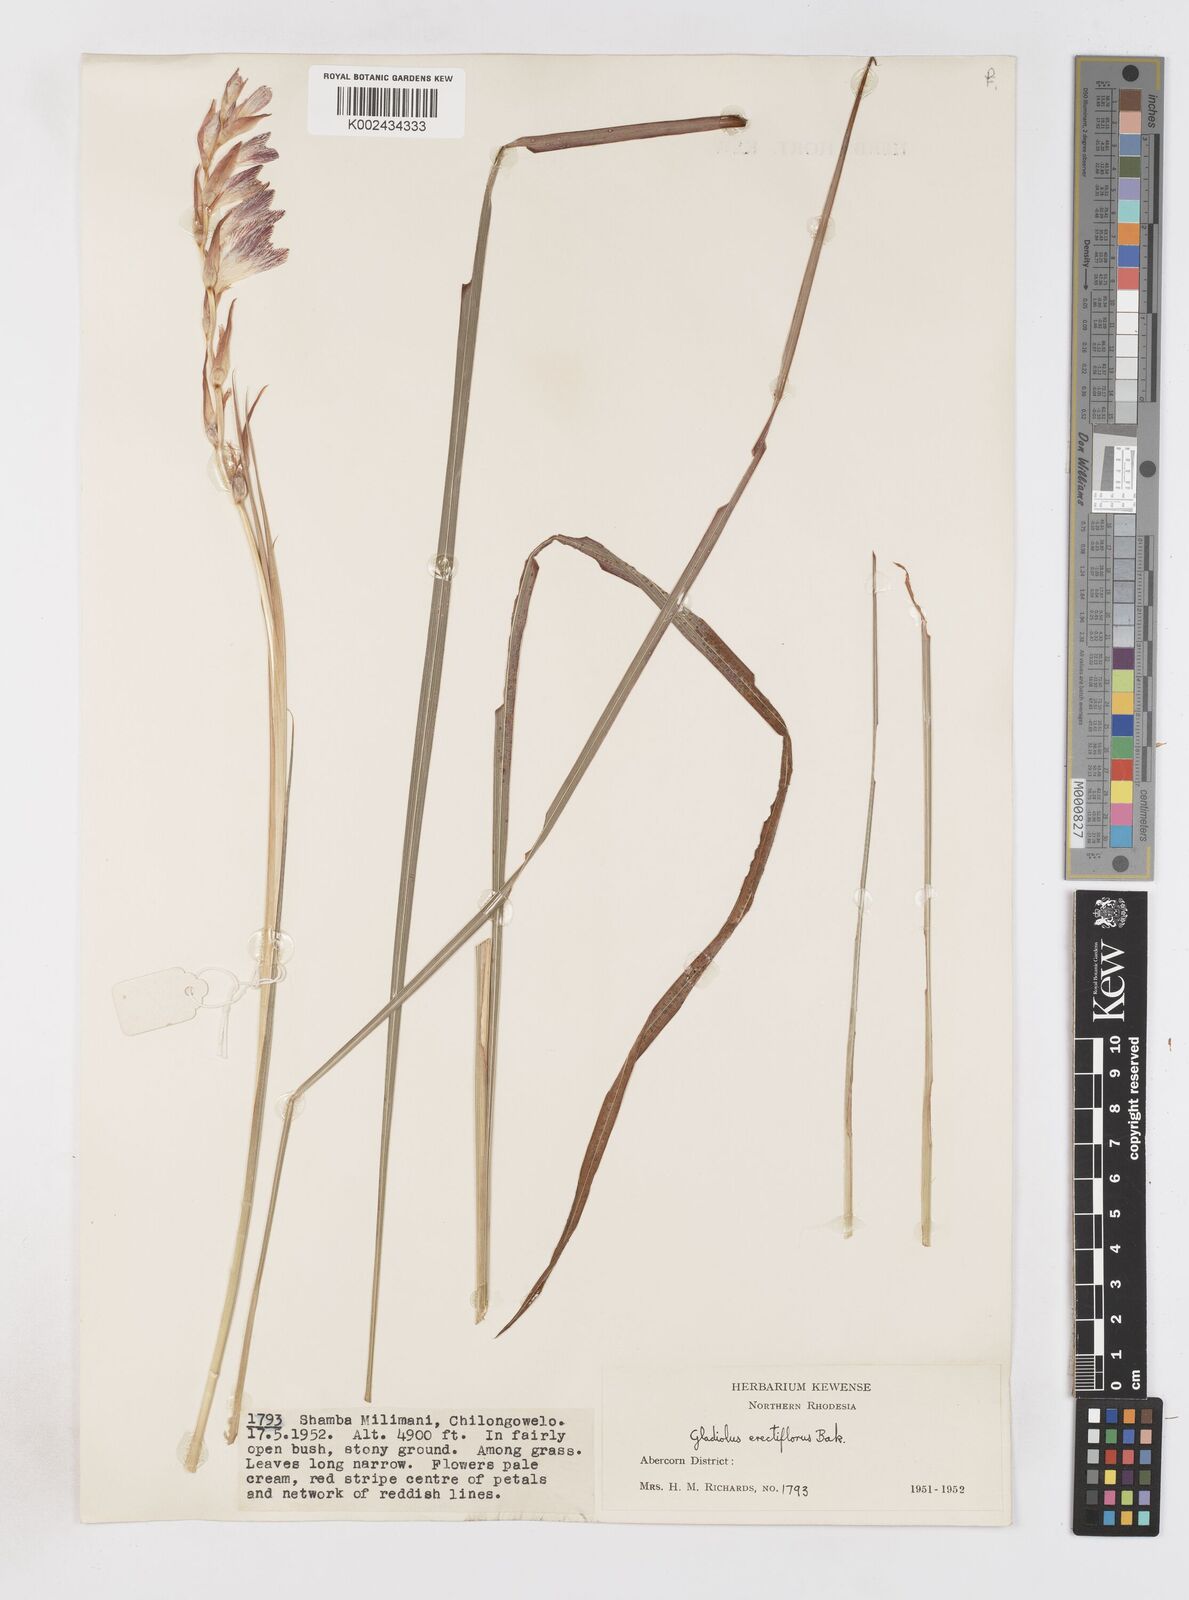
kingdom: Plantae
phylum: Tracheophyta
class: Liliopsida
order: Asparagales
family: Iridaceae
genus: Gladiolus
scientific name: Gladiolus erectiflorus
